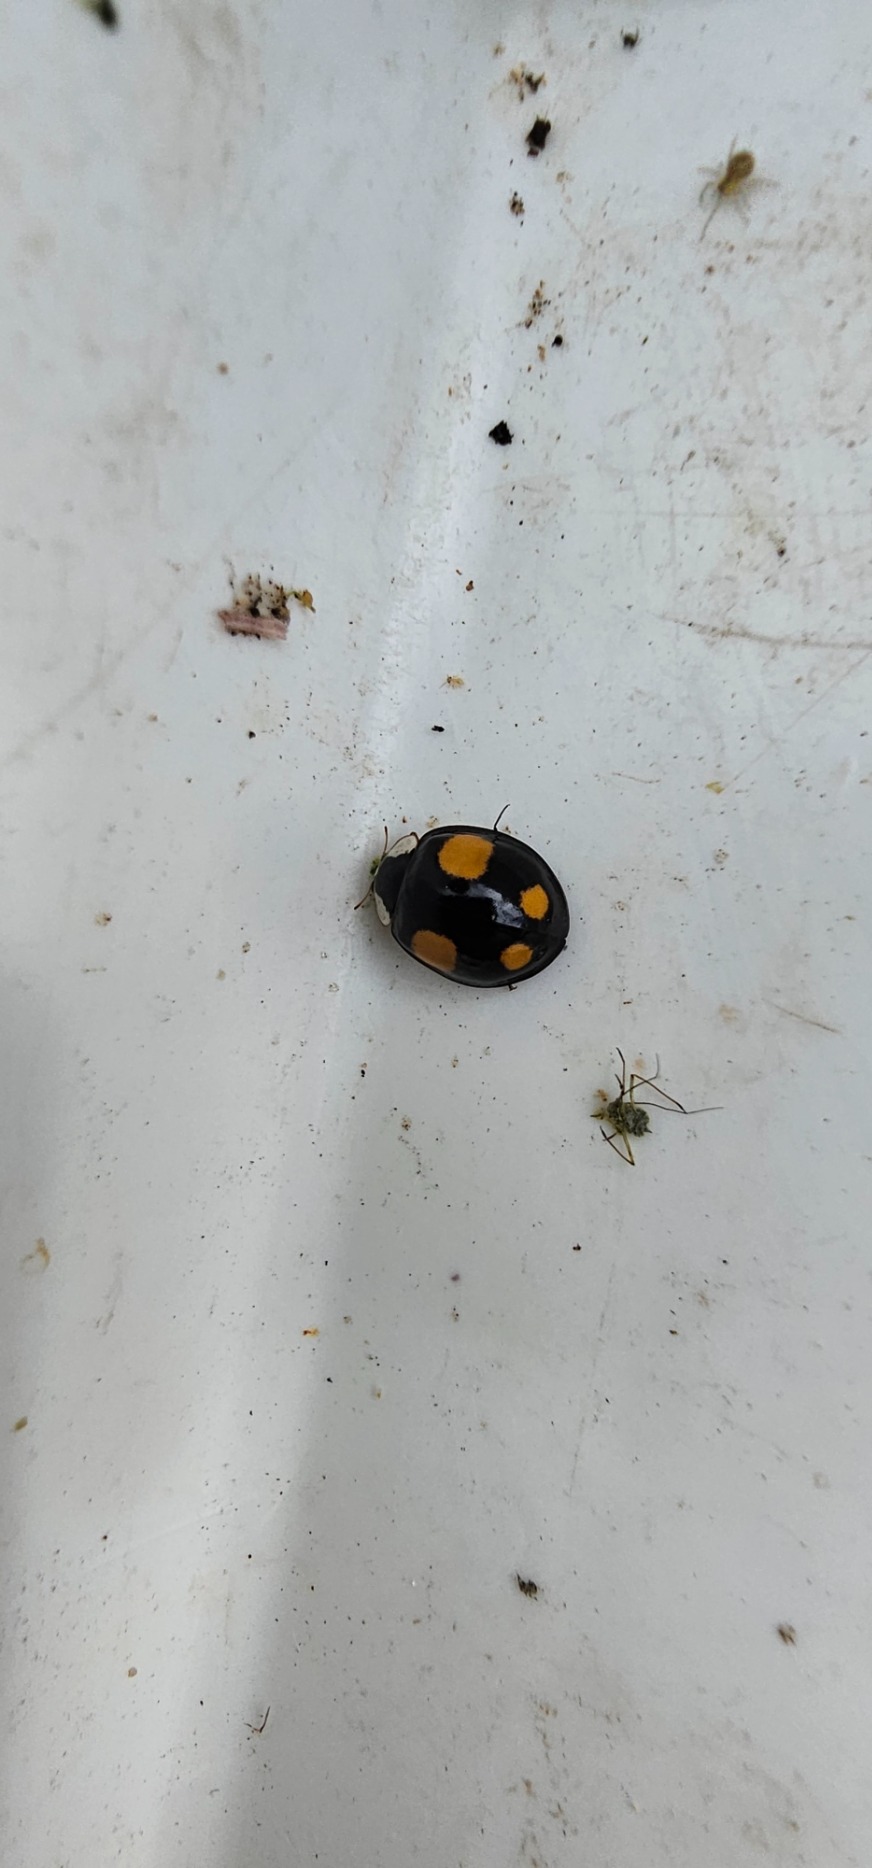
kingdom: Animalia
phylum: Arthropoda
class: Insecta
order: Coleoptera
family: Coccinellidae
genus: Harmonia
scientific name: Harmonia axyridis
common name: Harlekinmariehøne
